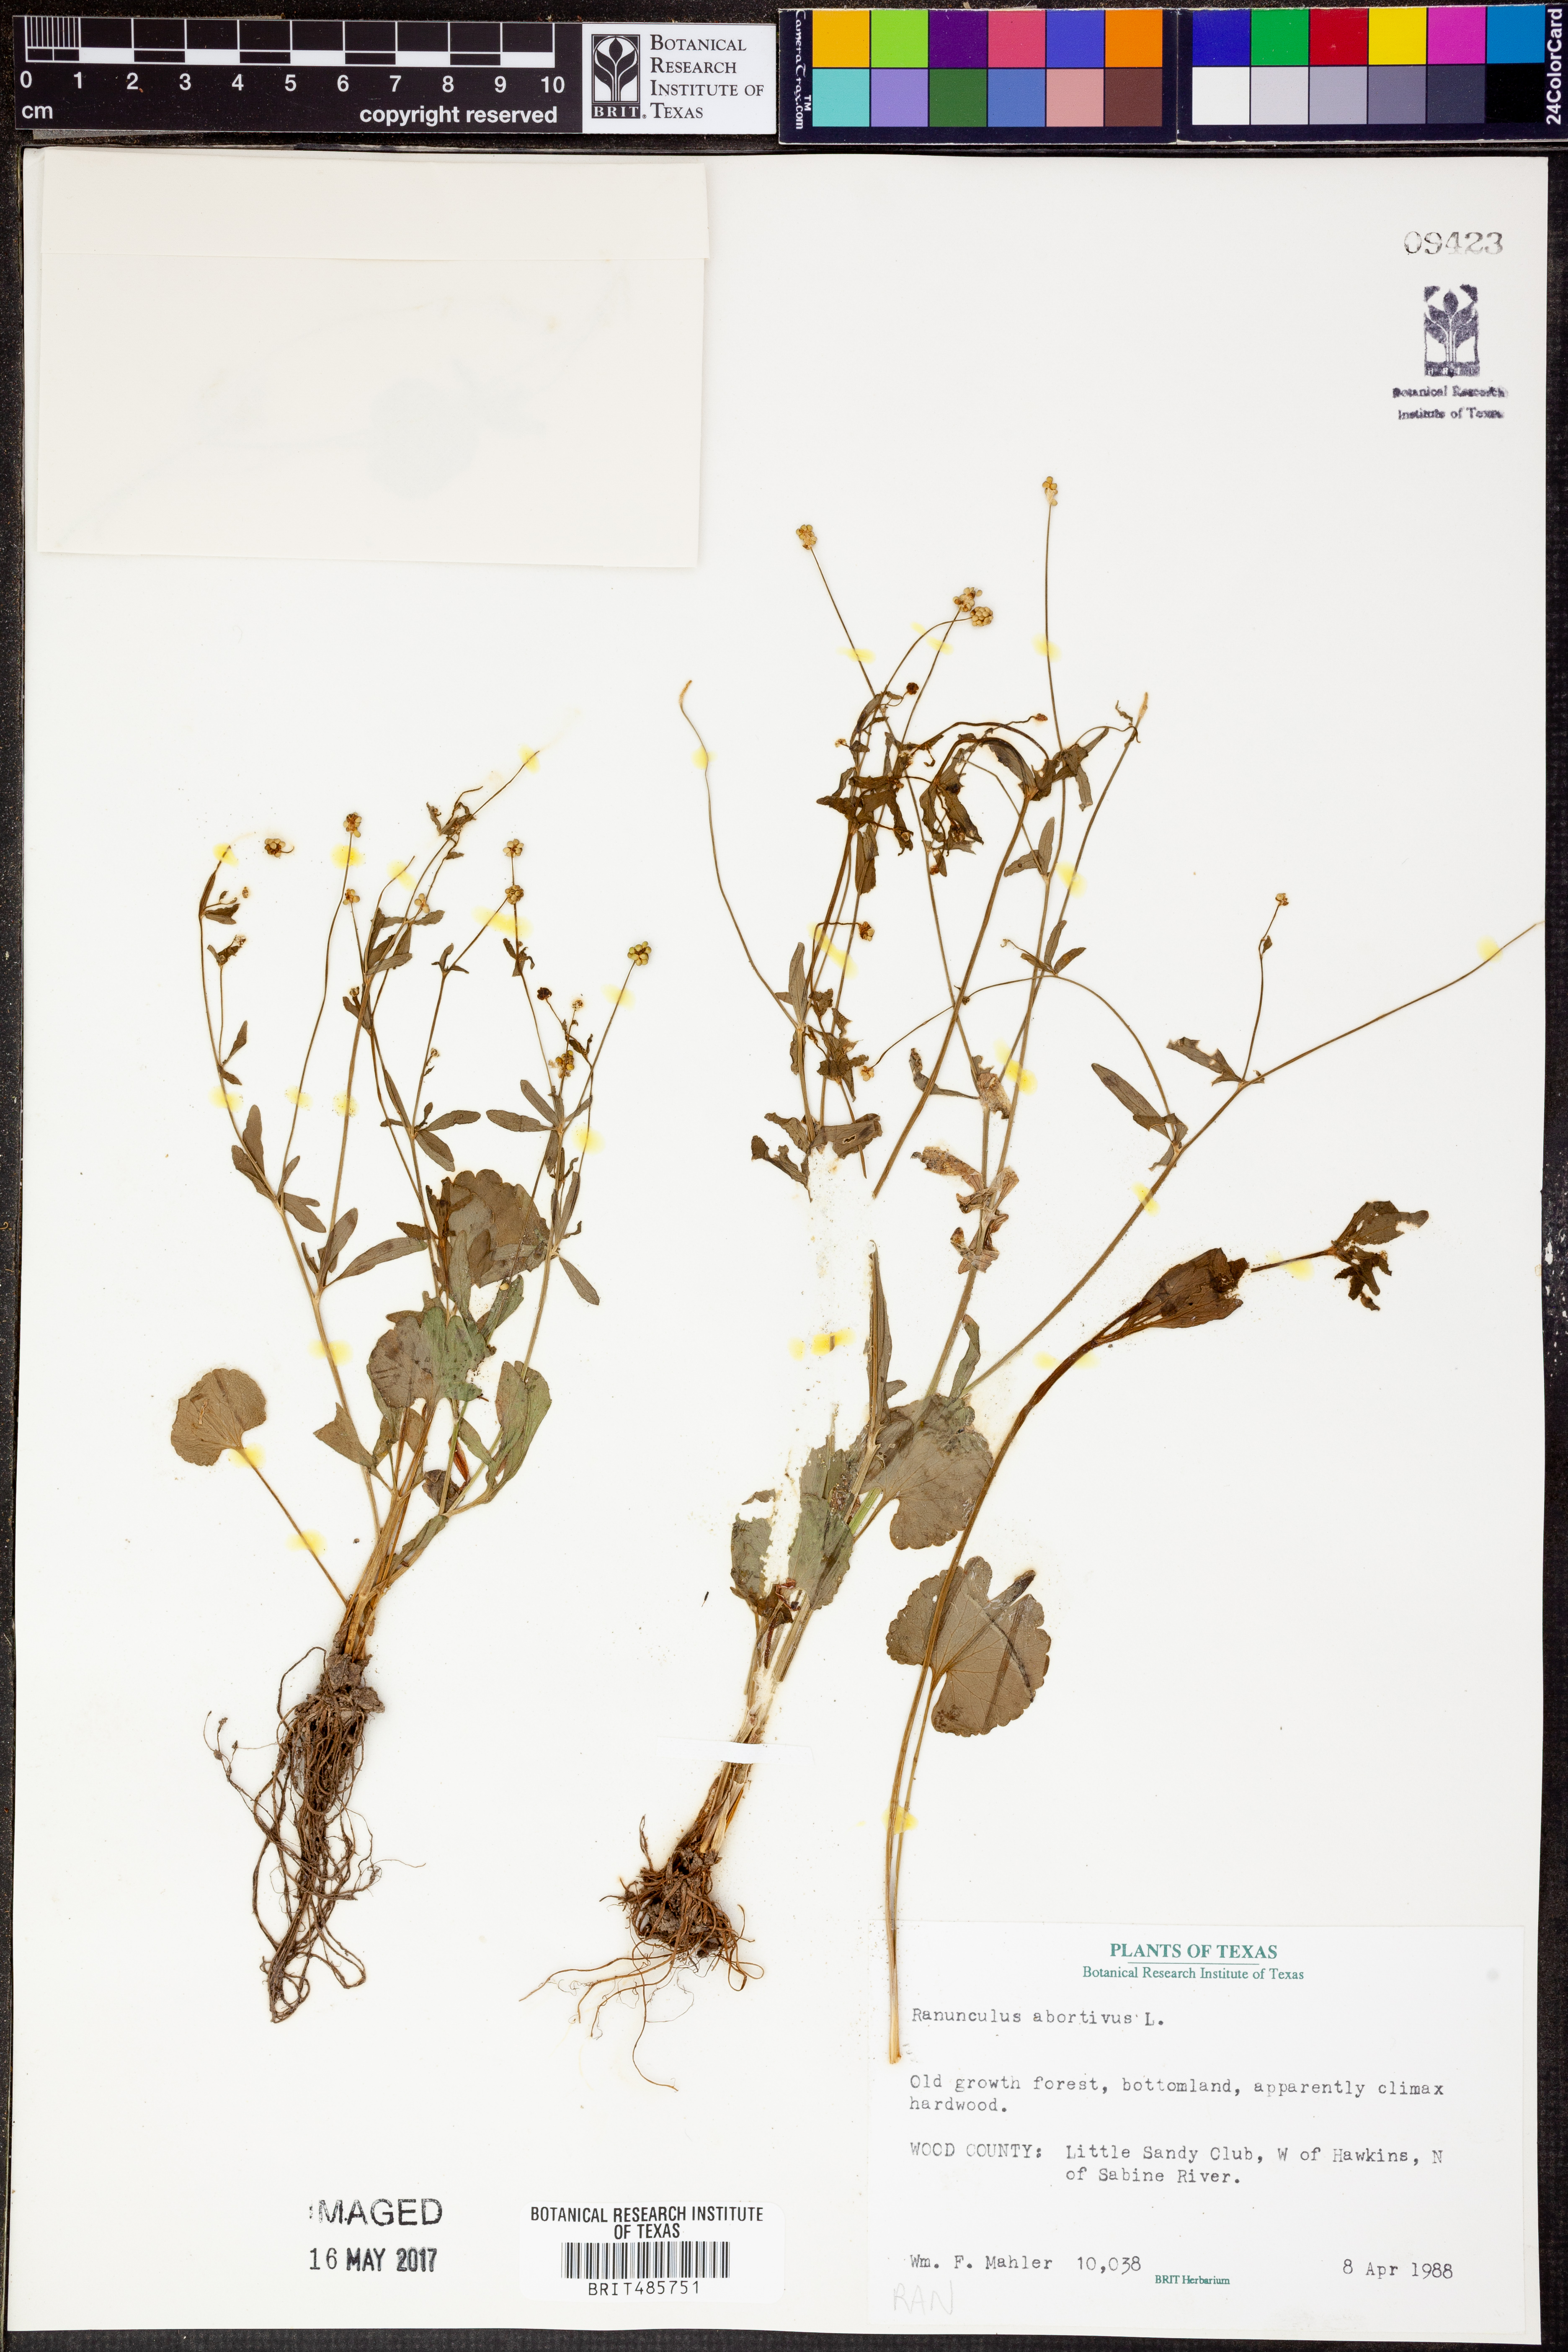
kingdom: Plantae
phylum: Tracheophyta
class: Magnoliopsida
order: Ranunculales
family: Ranunculaceae
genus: Ranunculus
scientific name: Ranunculus abortivus
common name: Early wood buttercup
